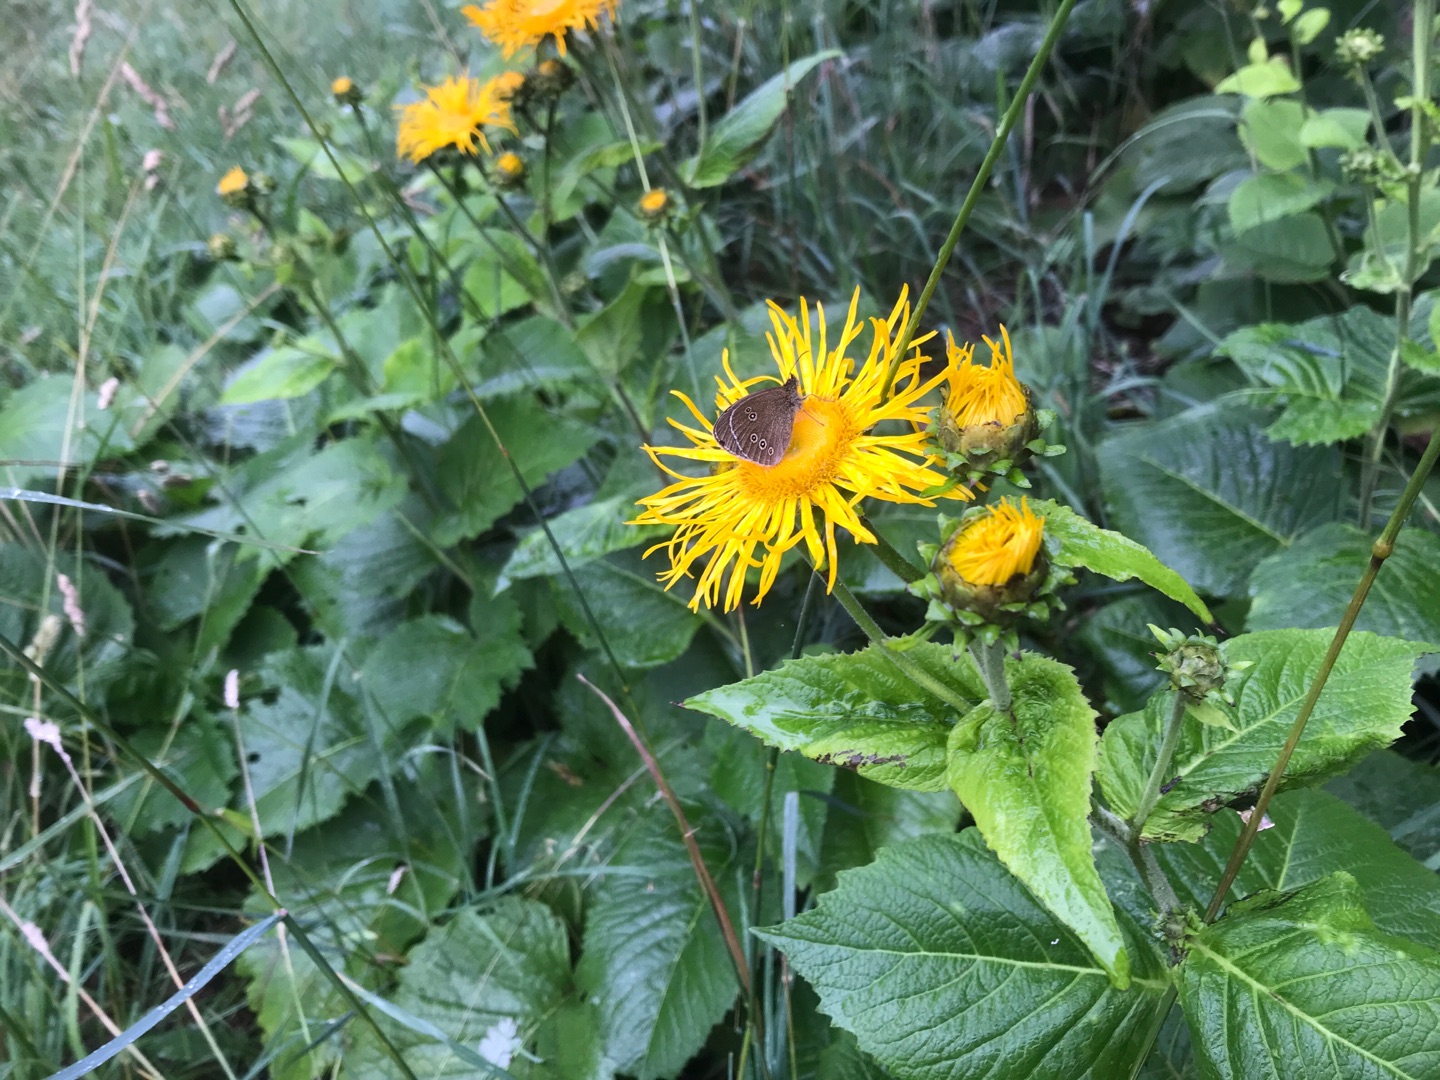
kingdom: Plantae
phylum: Tracheophyta
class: Magnoliopsida
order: Asterales
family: Asteraceae
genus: Telekia
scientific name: Telekia speciosa
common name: Tusindstråle
